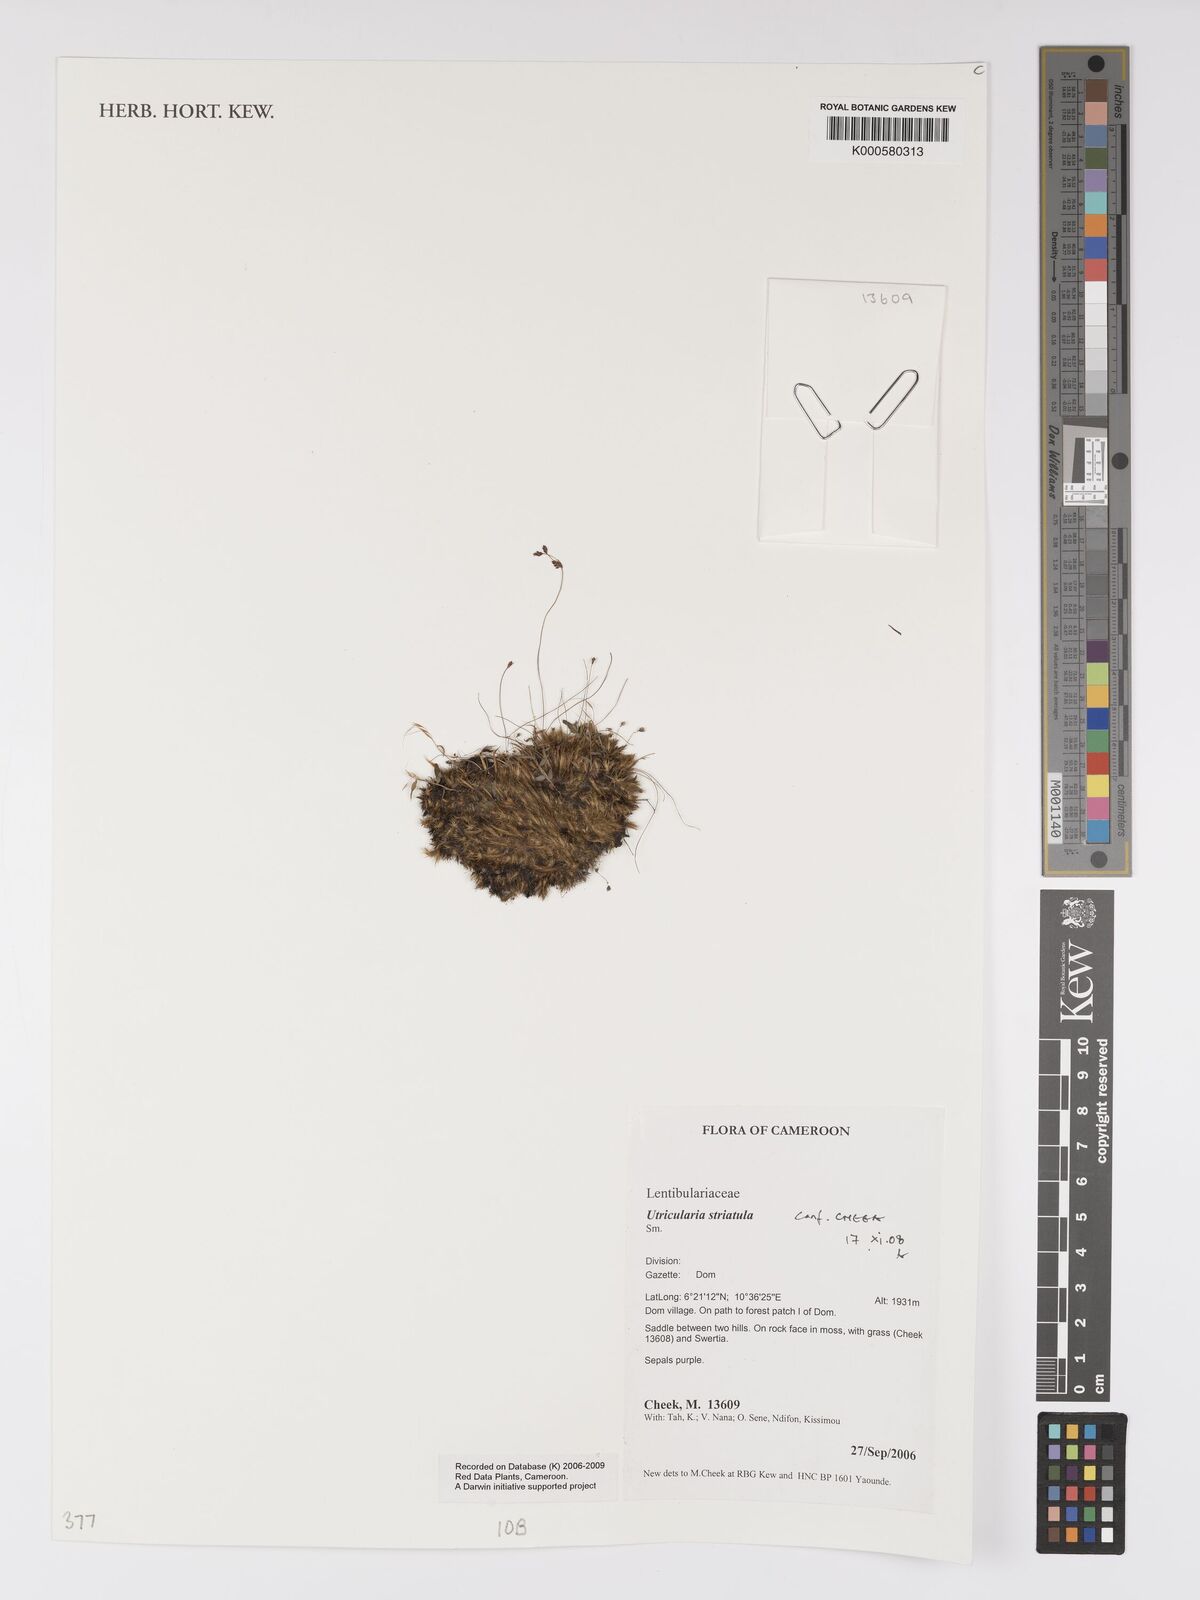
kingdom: Plantae
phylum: Tracheophyta
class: Magnoliopsida
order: Lamiales
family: Lentibulariaceae
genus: Utricularia
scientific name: Utricularia striatula
